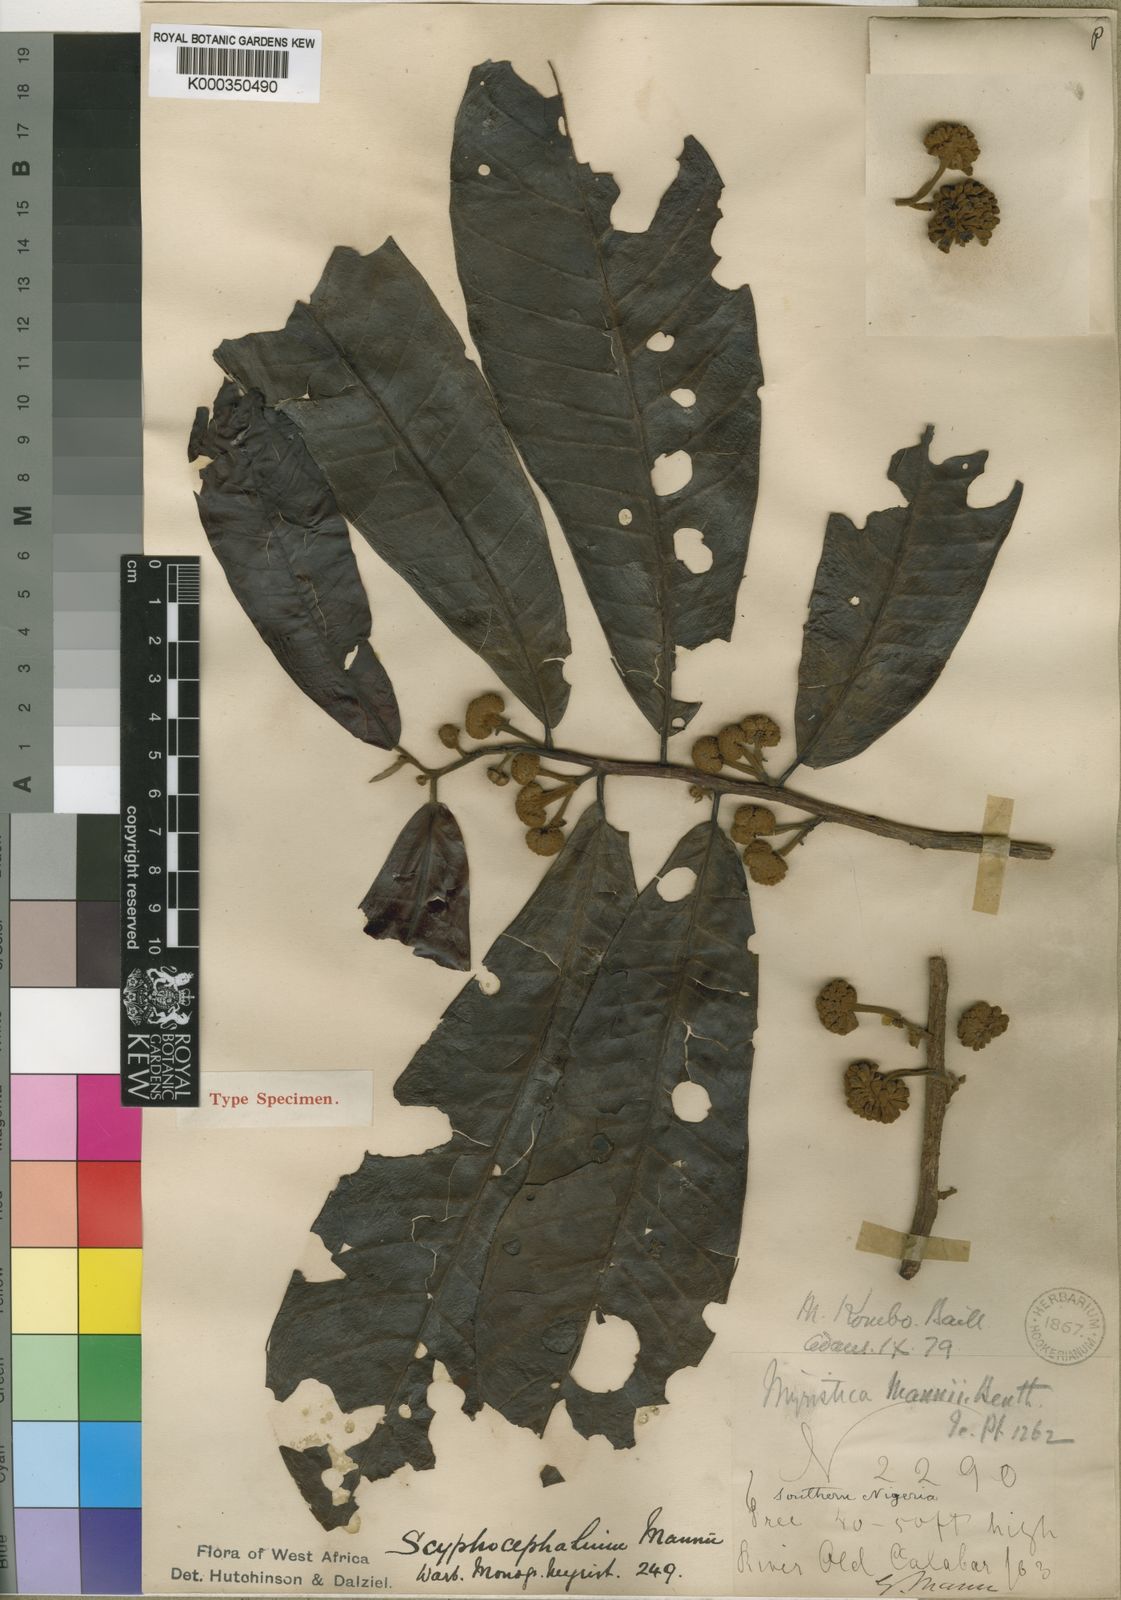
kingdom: Plantae
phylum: Tracheophyta
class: Magnoliopsida
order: Magnoliales
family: Myristicaceae
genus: Scyphocephalum
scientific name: Scyphocephalum mannii
